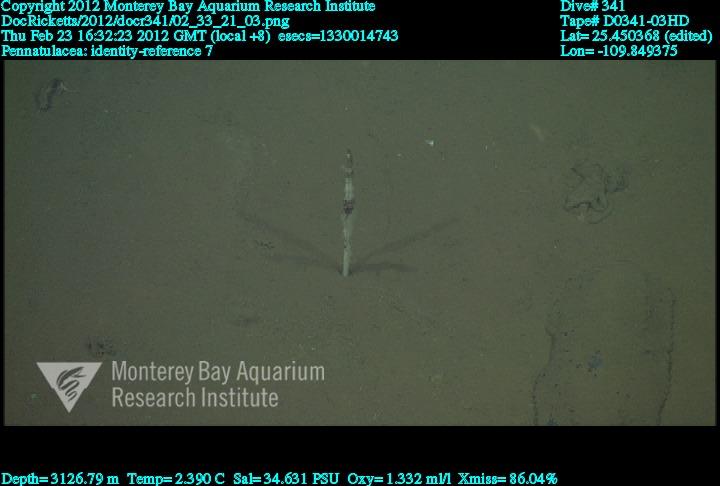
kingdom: Animalia
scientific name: Animalia
